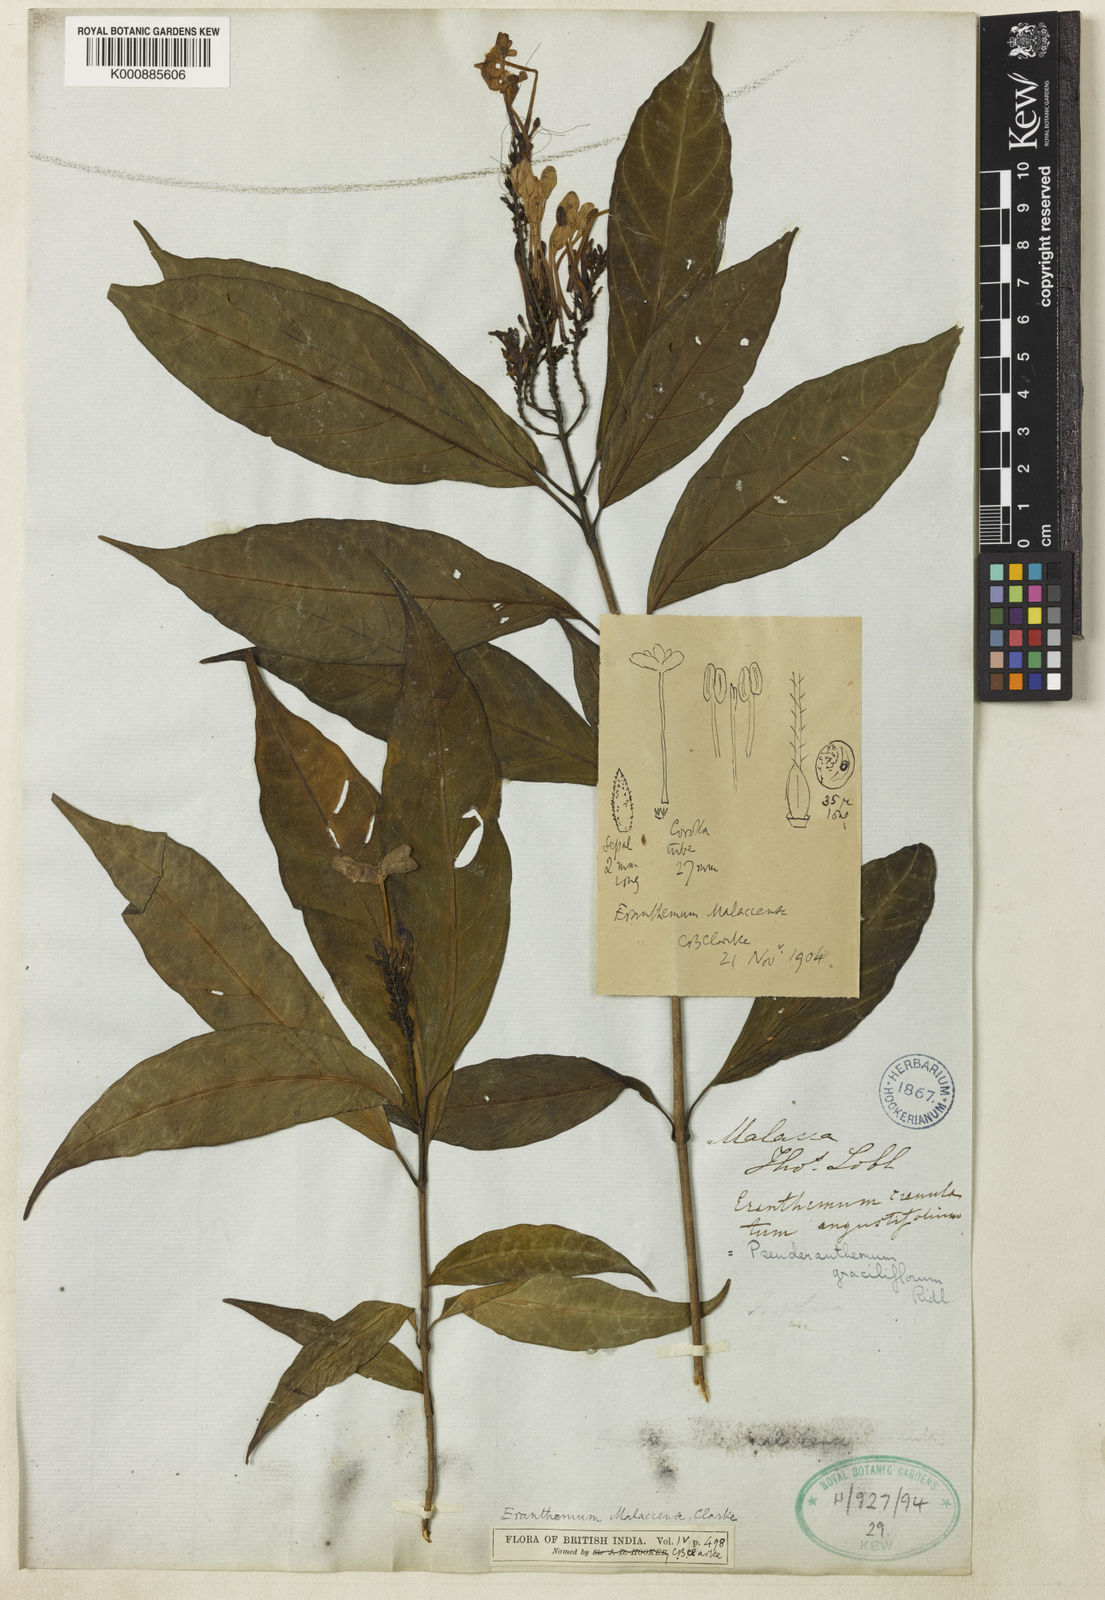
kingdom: Plantae
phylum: Tracheophyta
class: Magnoliopsida
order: Lamiales
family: Acanthaceae
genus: Pseuderanthemum
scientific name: Pseuderanthemum graciliflorum
